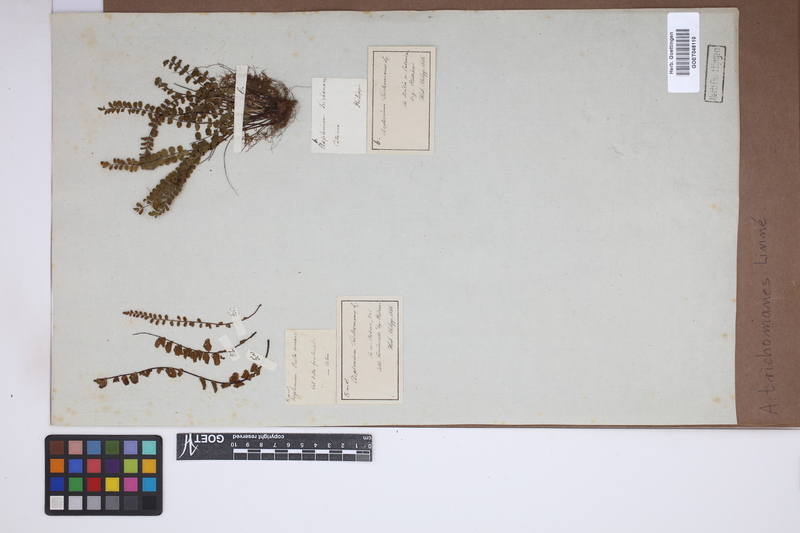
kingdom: Plantae
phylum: Tracheophyta
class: Polypodiopsida
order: Polypodiales
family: Aspleniaceae
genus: Asplenium
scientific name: Asplenium trichomanes
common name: Maidenhair spleenwort
